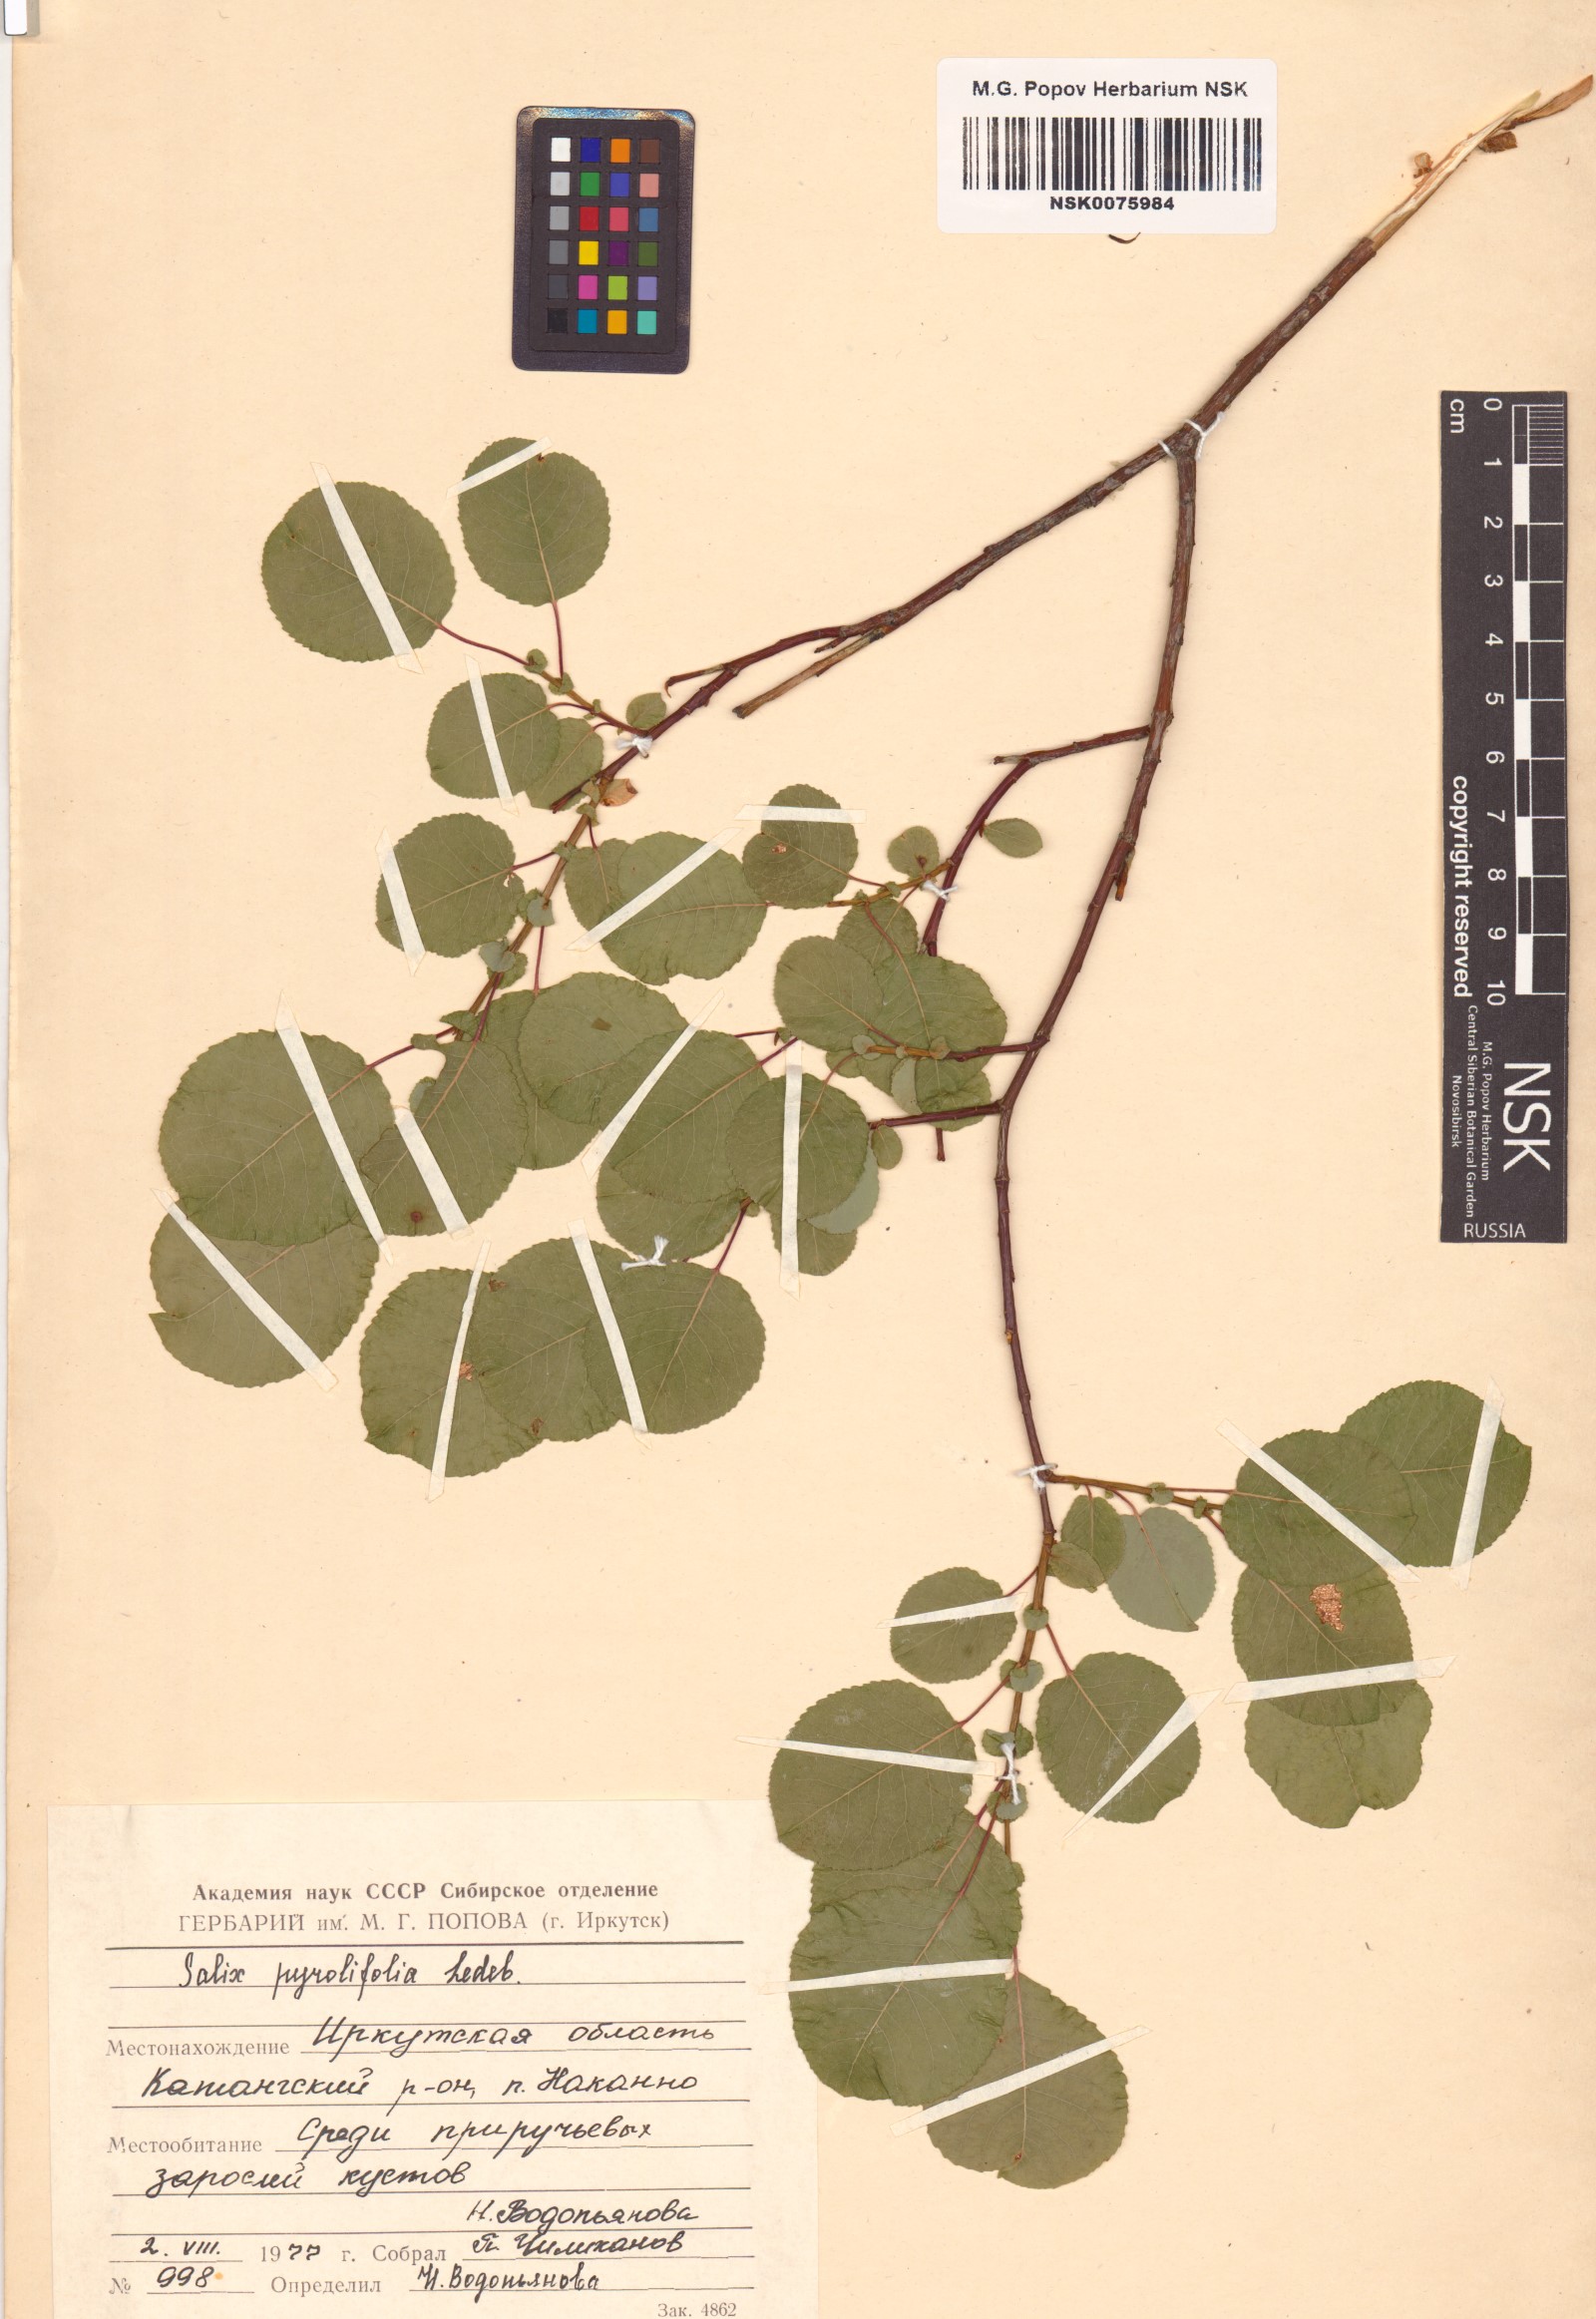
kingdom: Plantae
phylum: Tracheophyta
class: Magnoliopsida
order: Malpighiales
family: Salicaceae
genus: Salix
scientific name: Salix pyrolifolia
